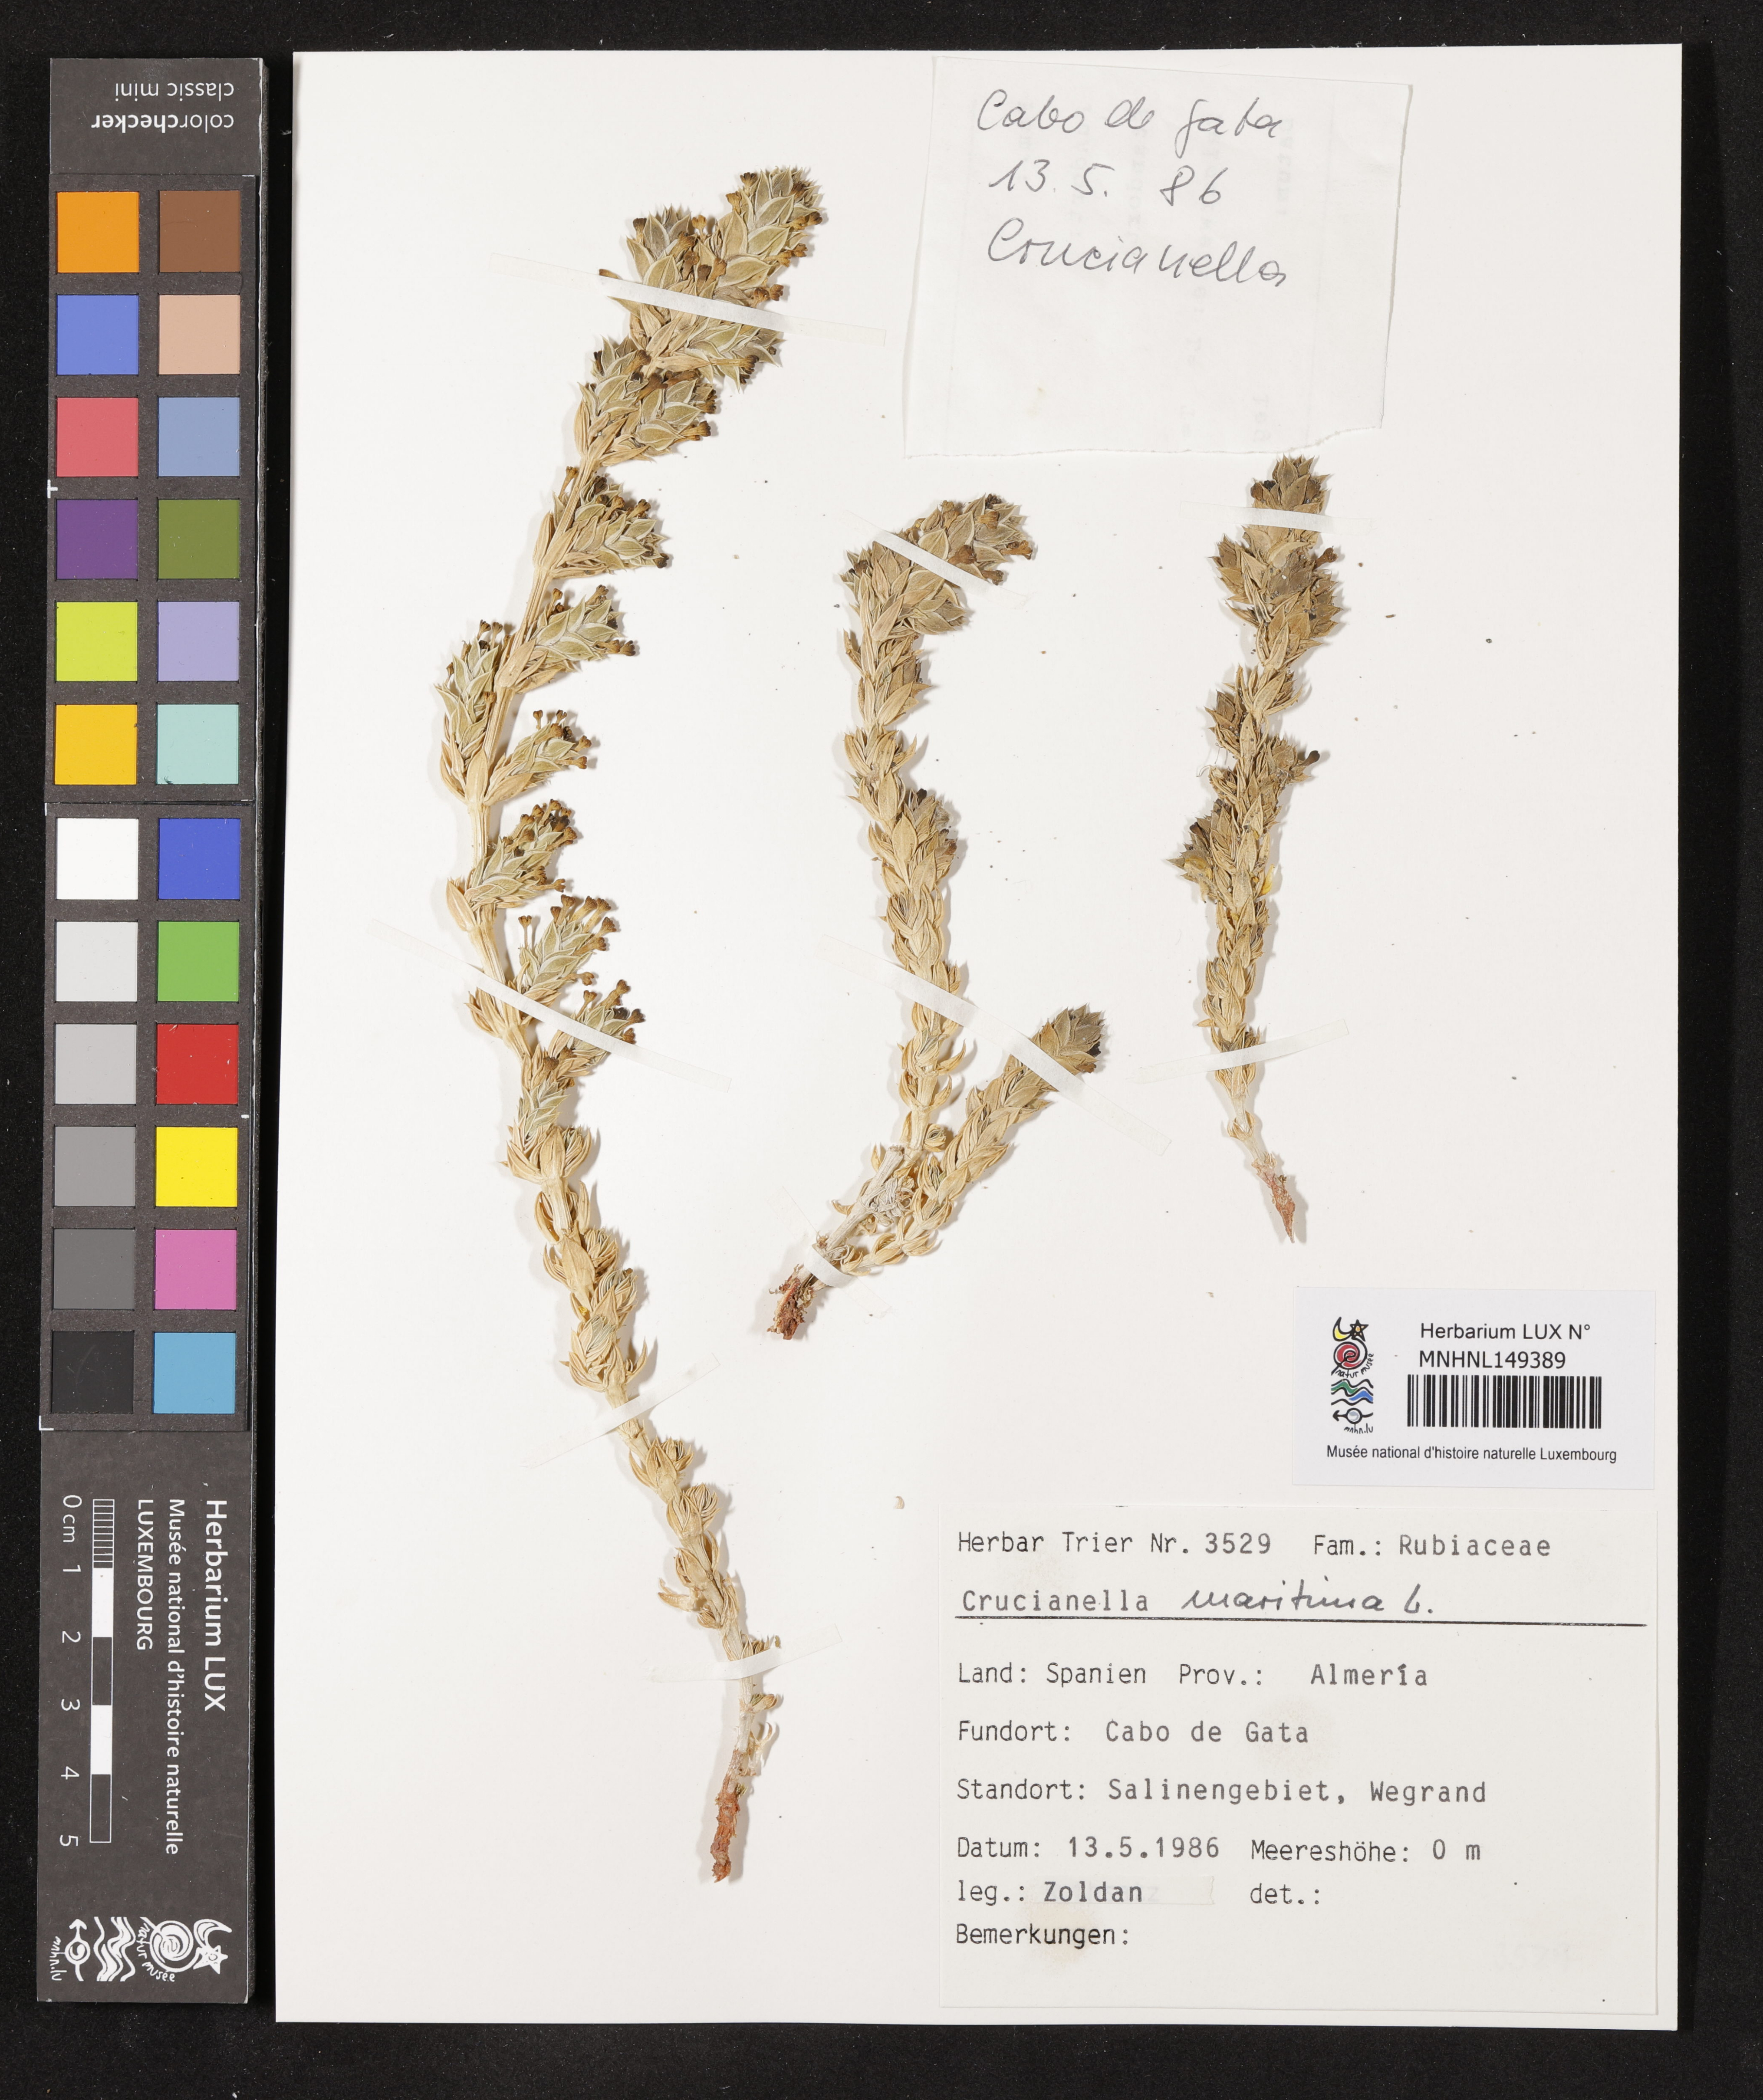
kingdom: Plantae
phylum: Tracheophyta
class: Magnoliopsida
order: Gentianales
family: Rubiaceae
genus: Crucianella
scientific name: Crucianella maritima
